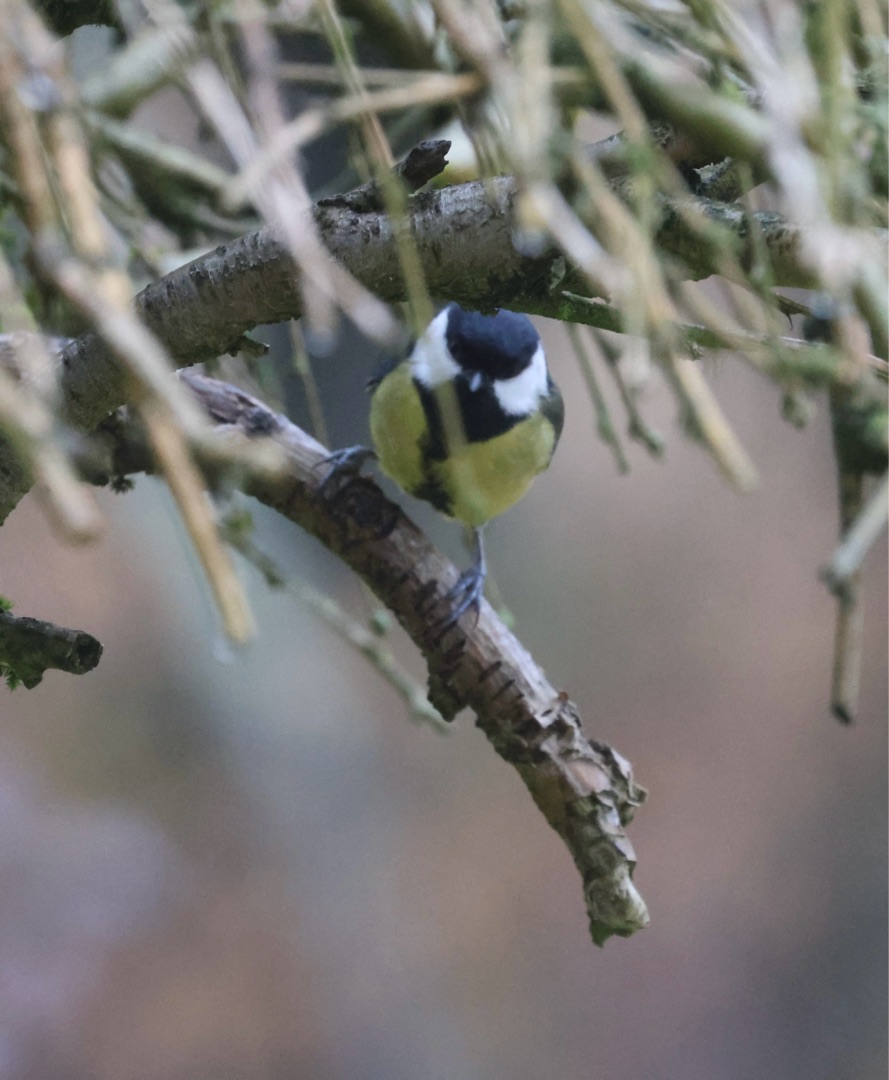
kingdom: Animalia
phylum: Chordata
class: Aves
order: Passeriformes
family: Paridae
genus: Parus
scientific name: Parus major
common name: Musvit
